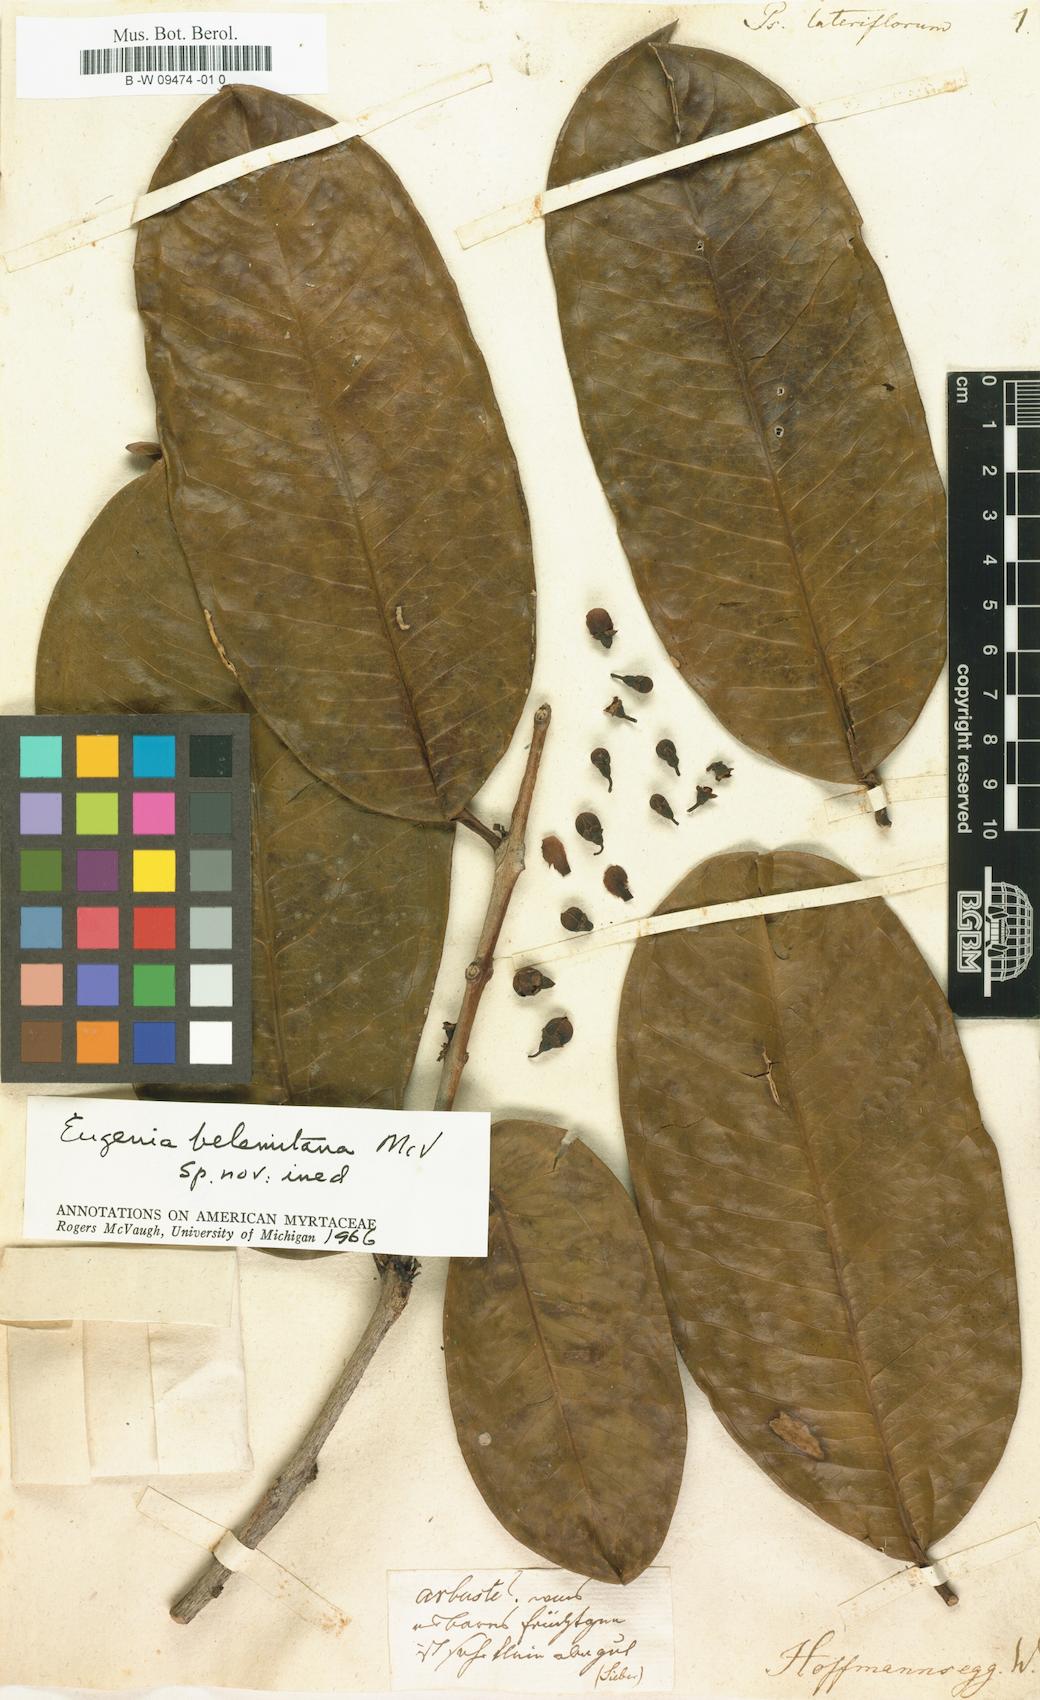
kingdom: Plantae
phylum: Tracheophyta
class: Magnoliopsida
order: Myrtales
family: Myrtaceae
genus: Psidium
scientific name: Psidium
